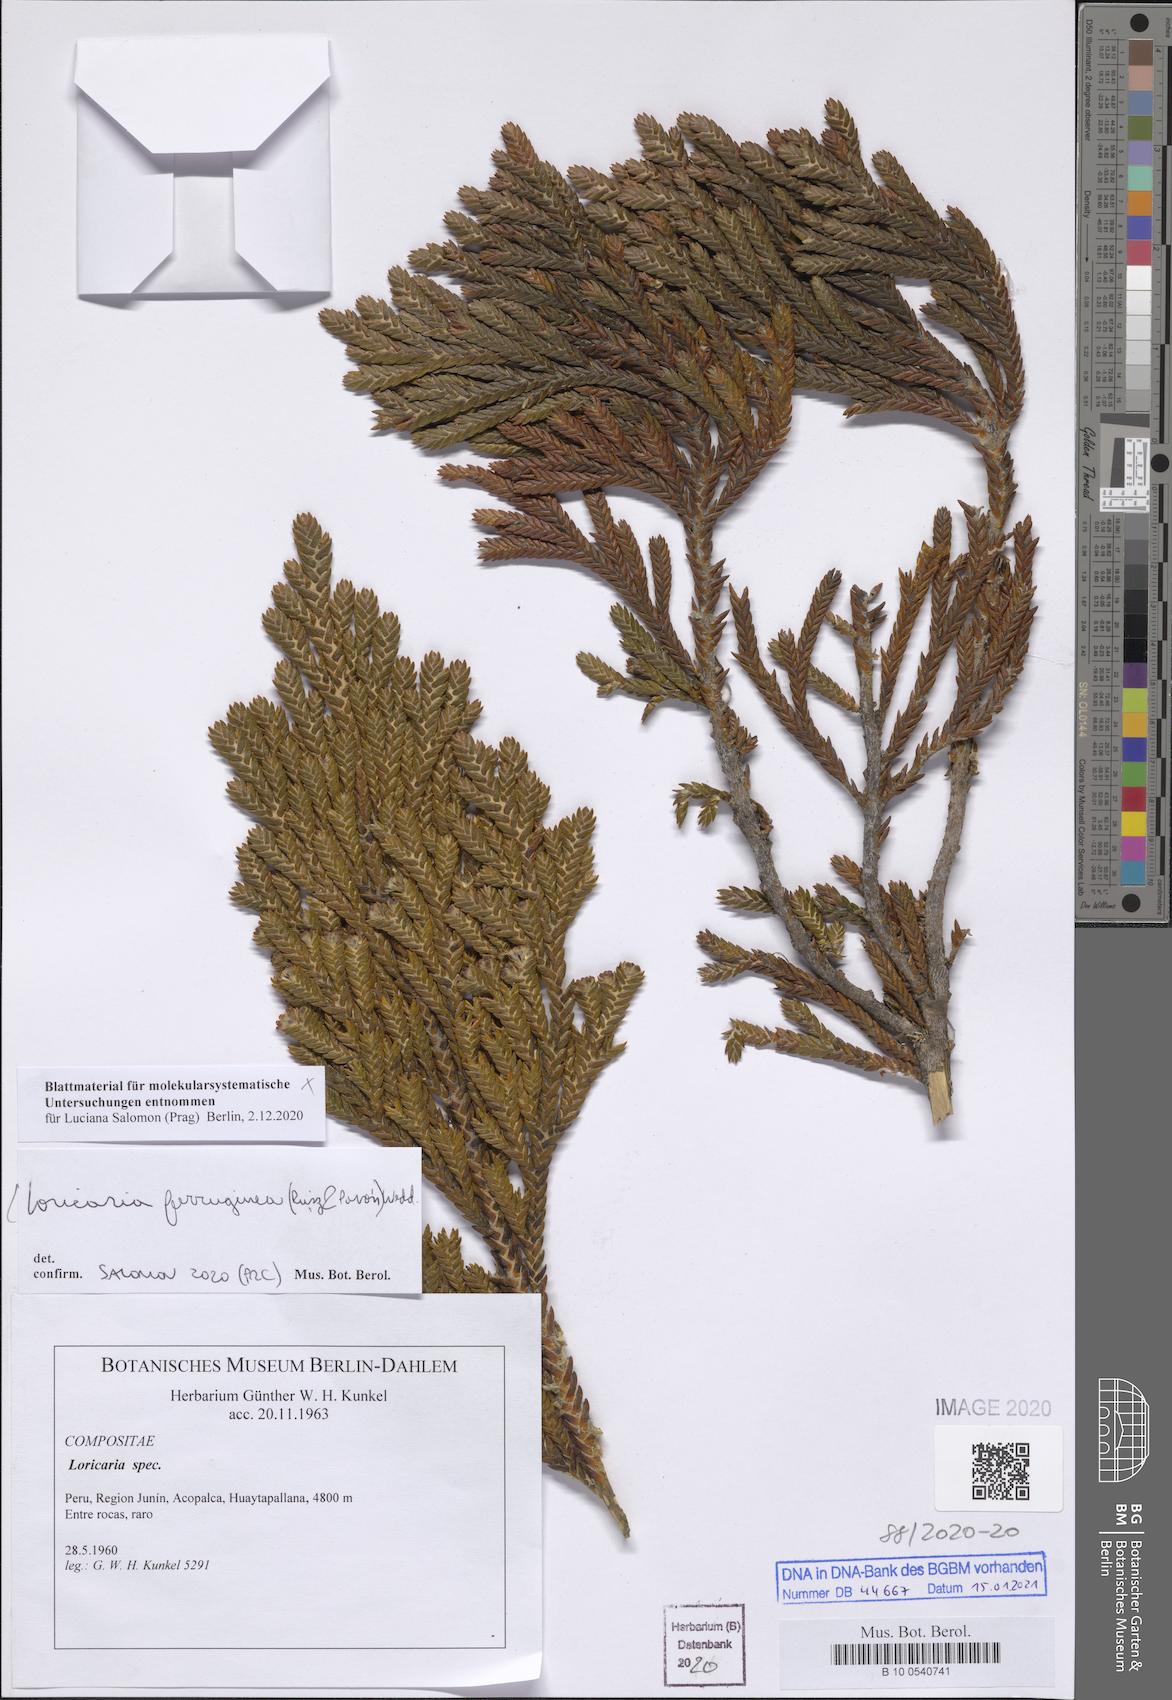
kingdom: Plantae
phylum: Tracheophyta
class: Magnoliopsida
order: Asterales
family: Asteraceae
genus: Andicolea
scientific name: Andicolea ferruginea
